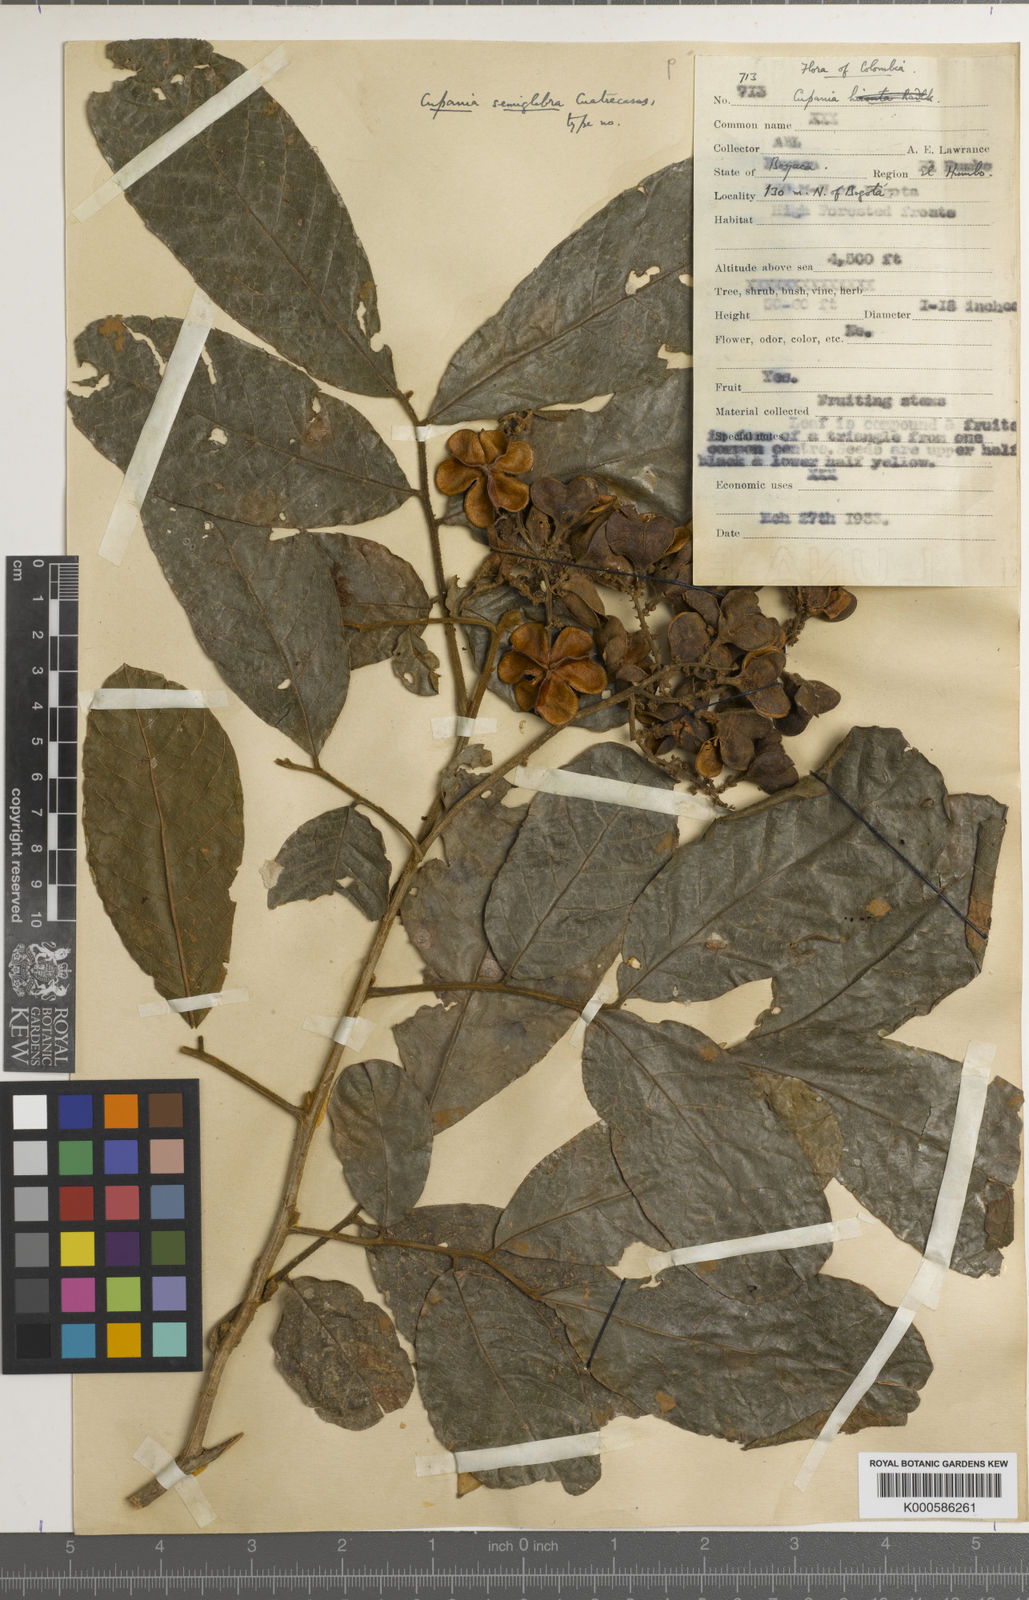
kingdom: Plantae
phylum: Tracheophyta
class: Magnoliopsida
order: Sapindales
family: Sapindaceae
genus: Cupania
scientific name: Cupania semiglabra
